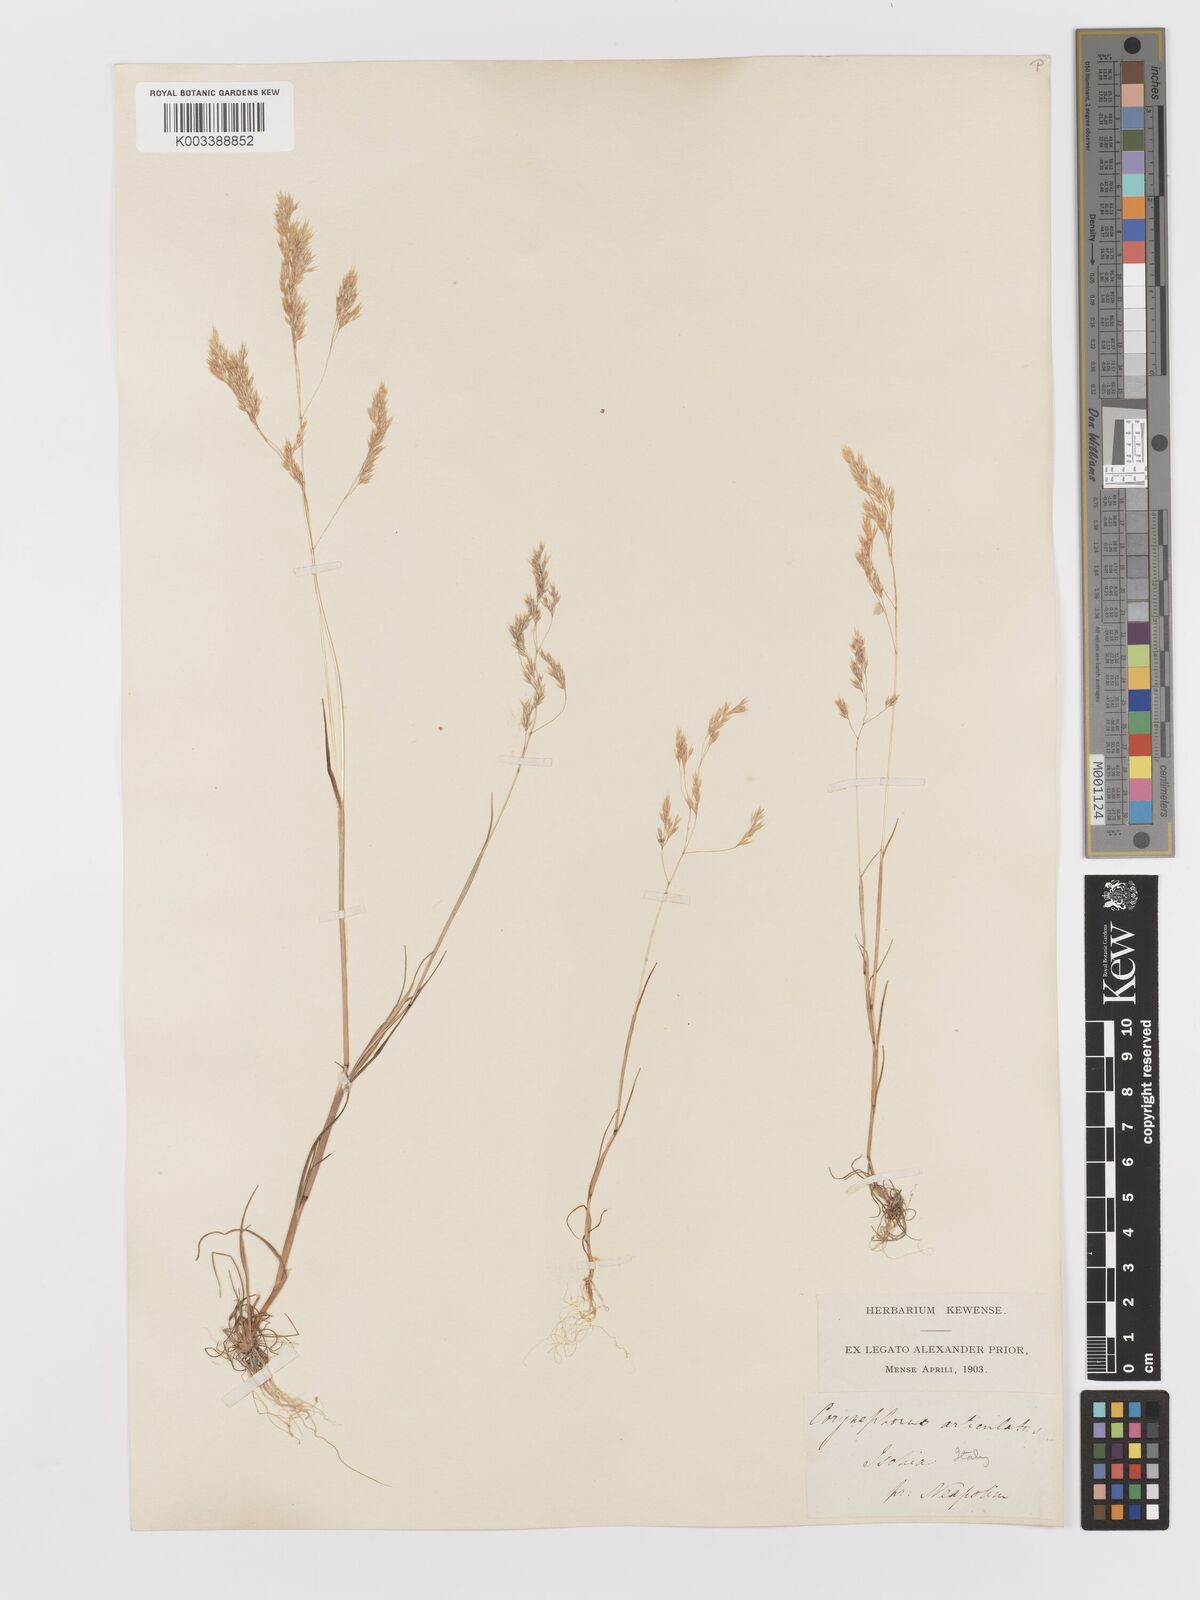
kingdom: Plantae
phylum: Tracheophyta
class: Liliopsida
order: Poales
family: Poaceae
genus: Corynephorus
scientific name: Corynephorus divaricatus
